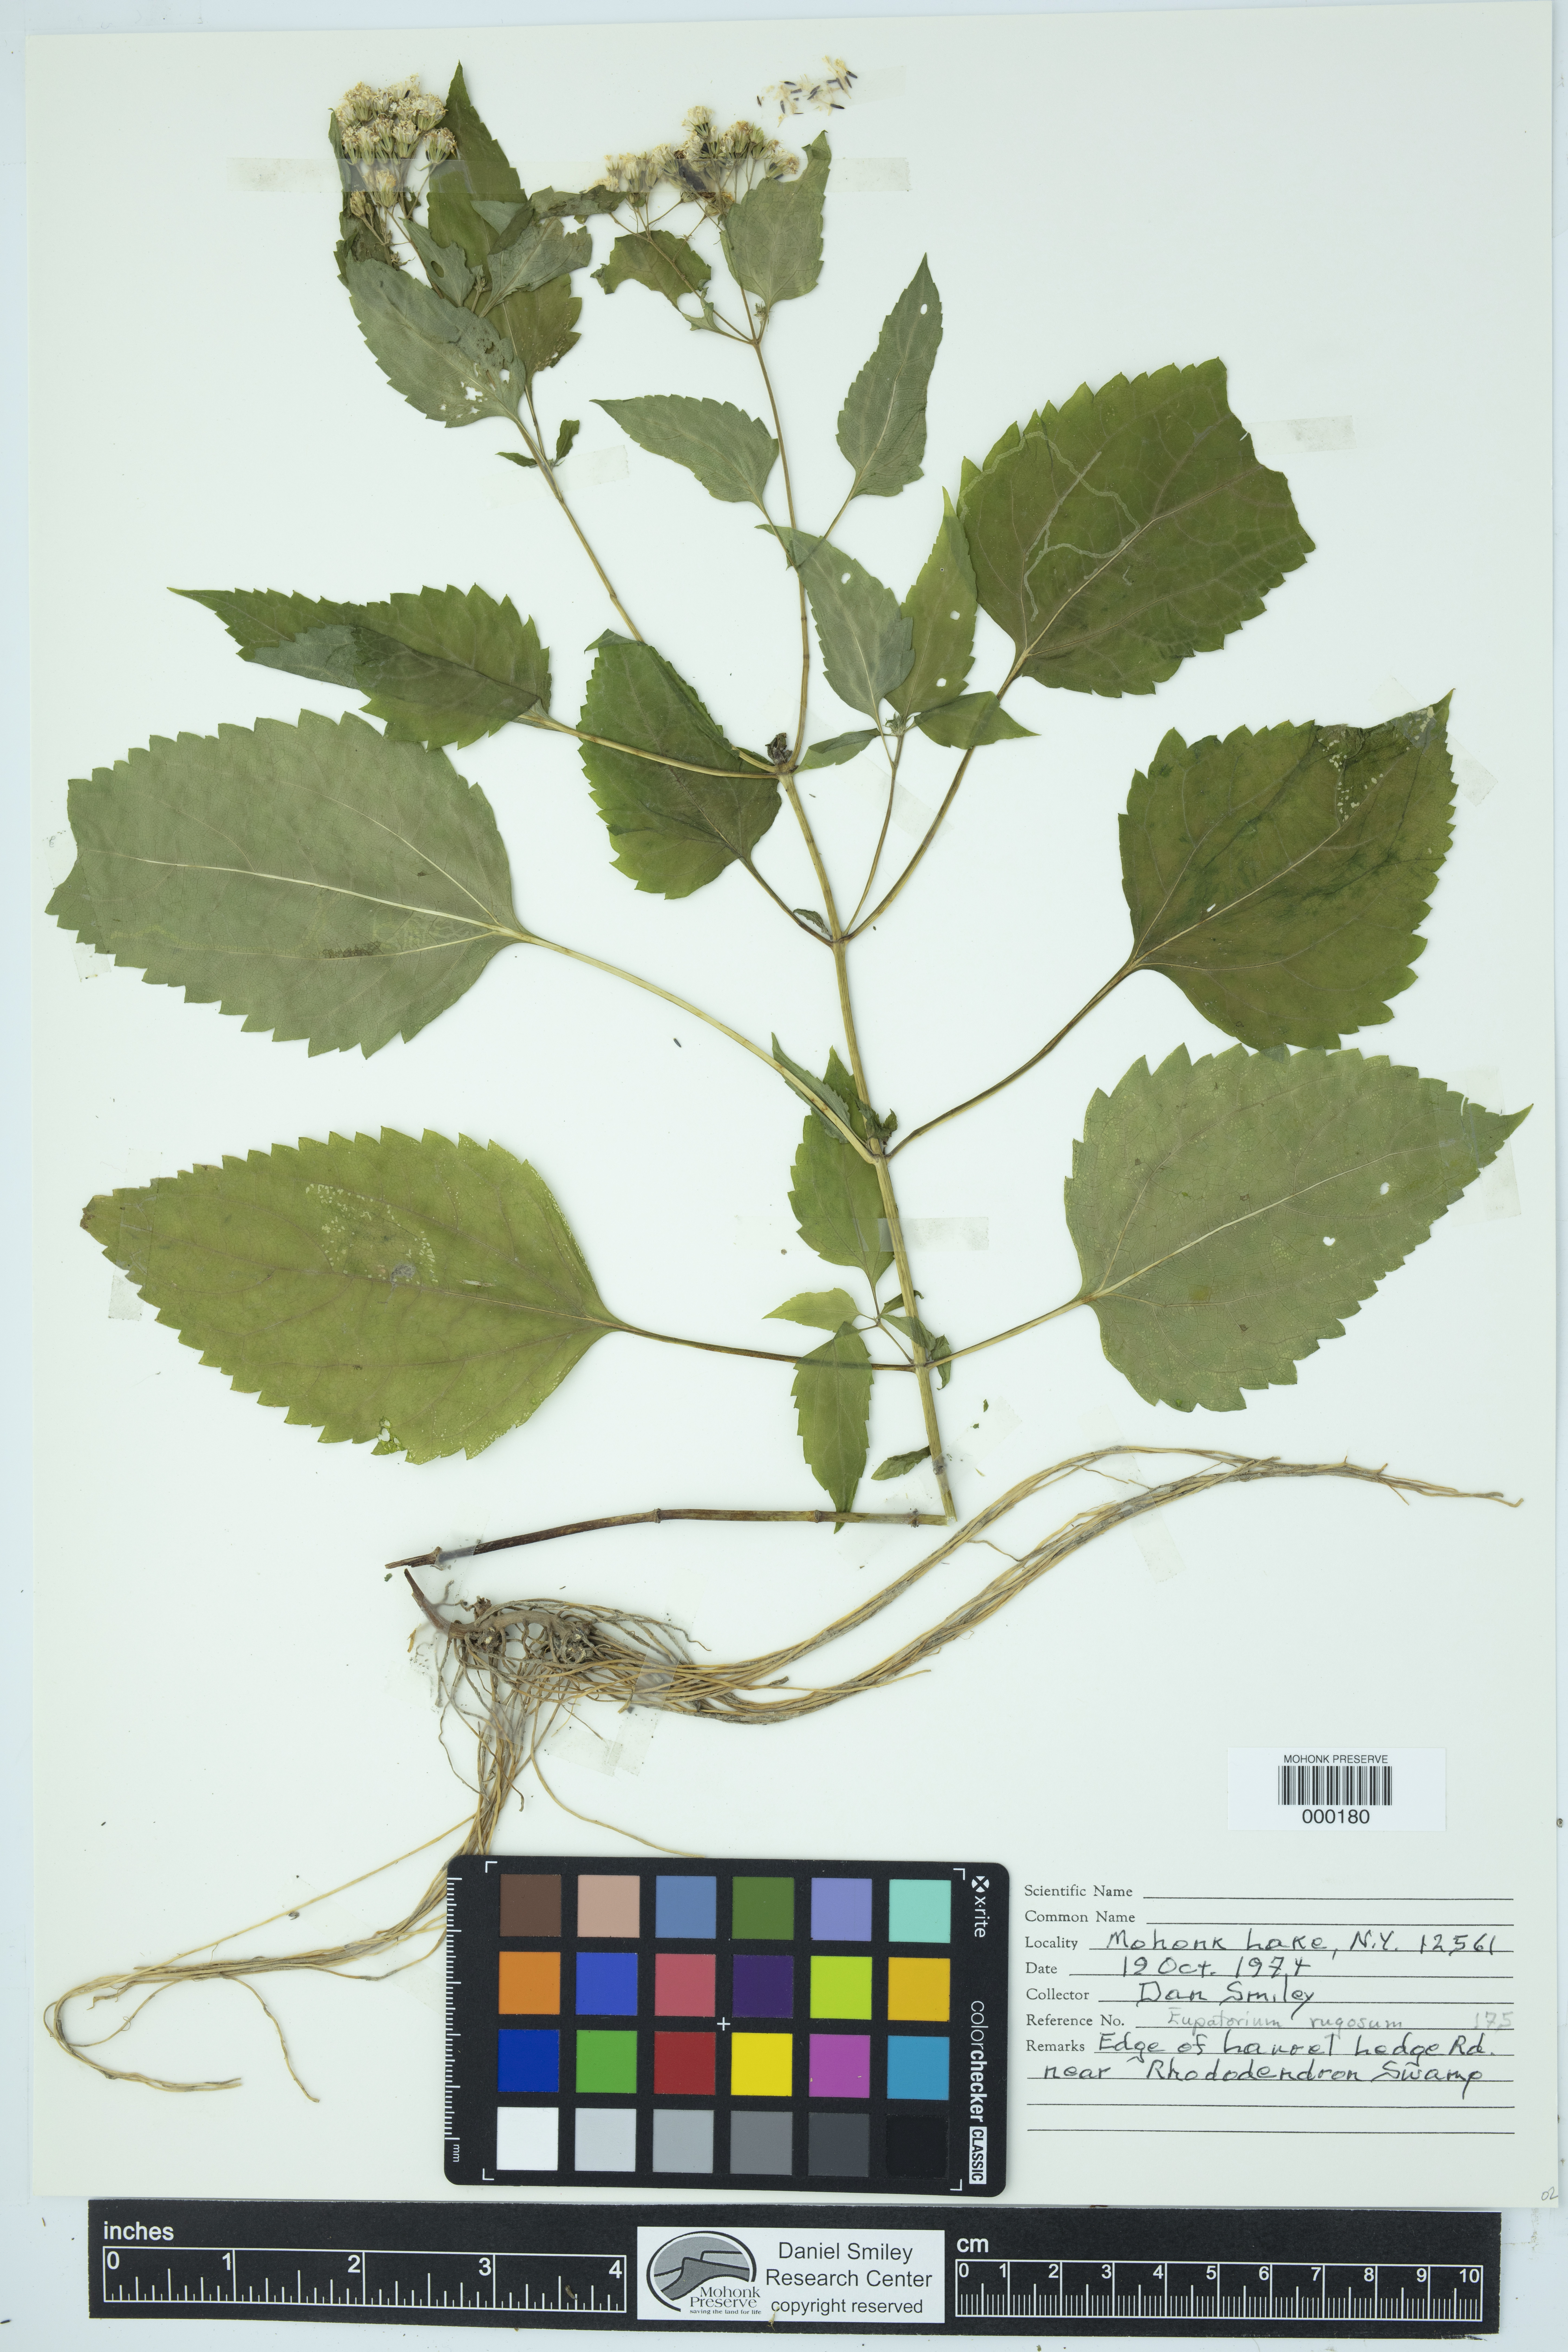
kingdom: Plantae
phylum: Tracheophyta
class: Magnoliopsida
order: Asterales
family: Asteraceae
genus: Ageratina
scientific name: Ageratina altissima
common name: White snakeroot
